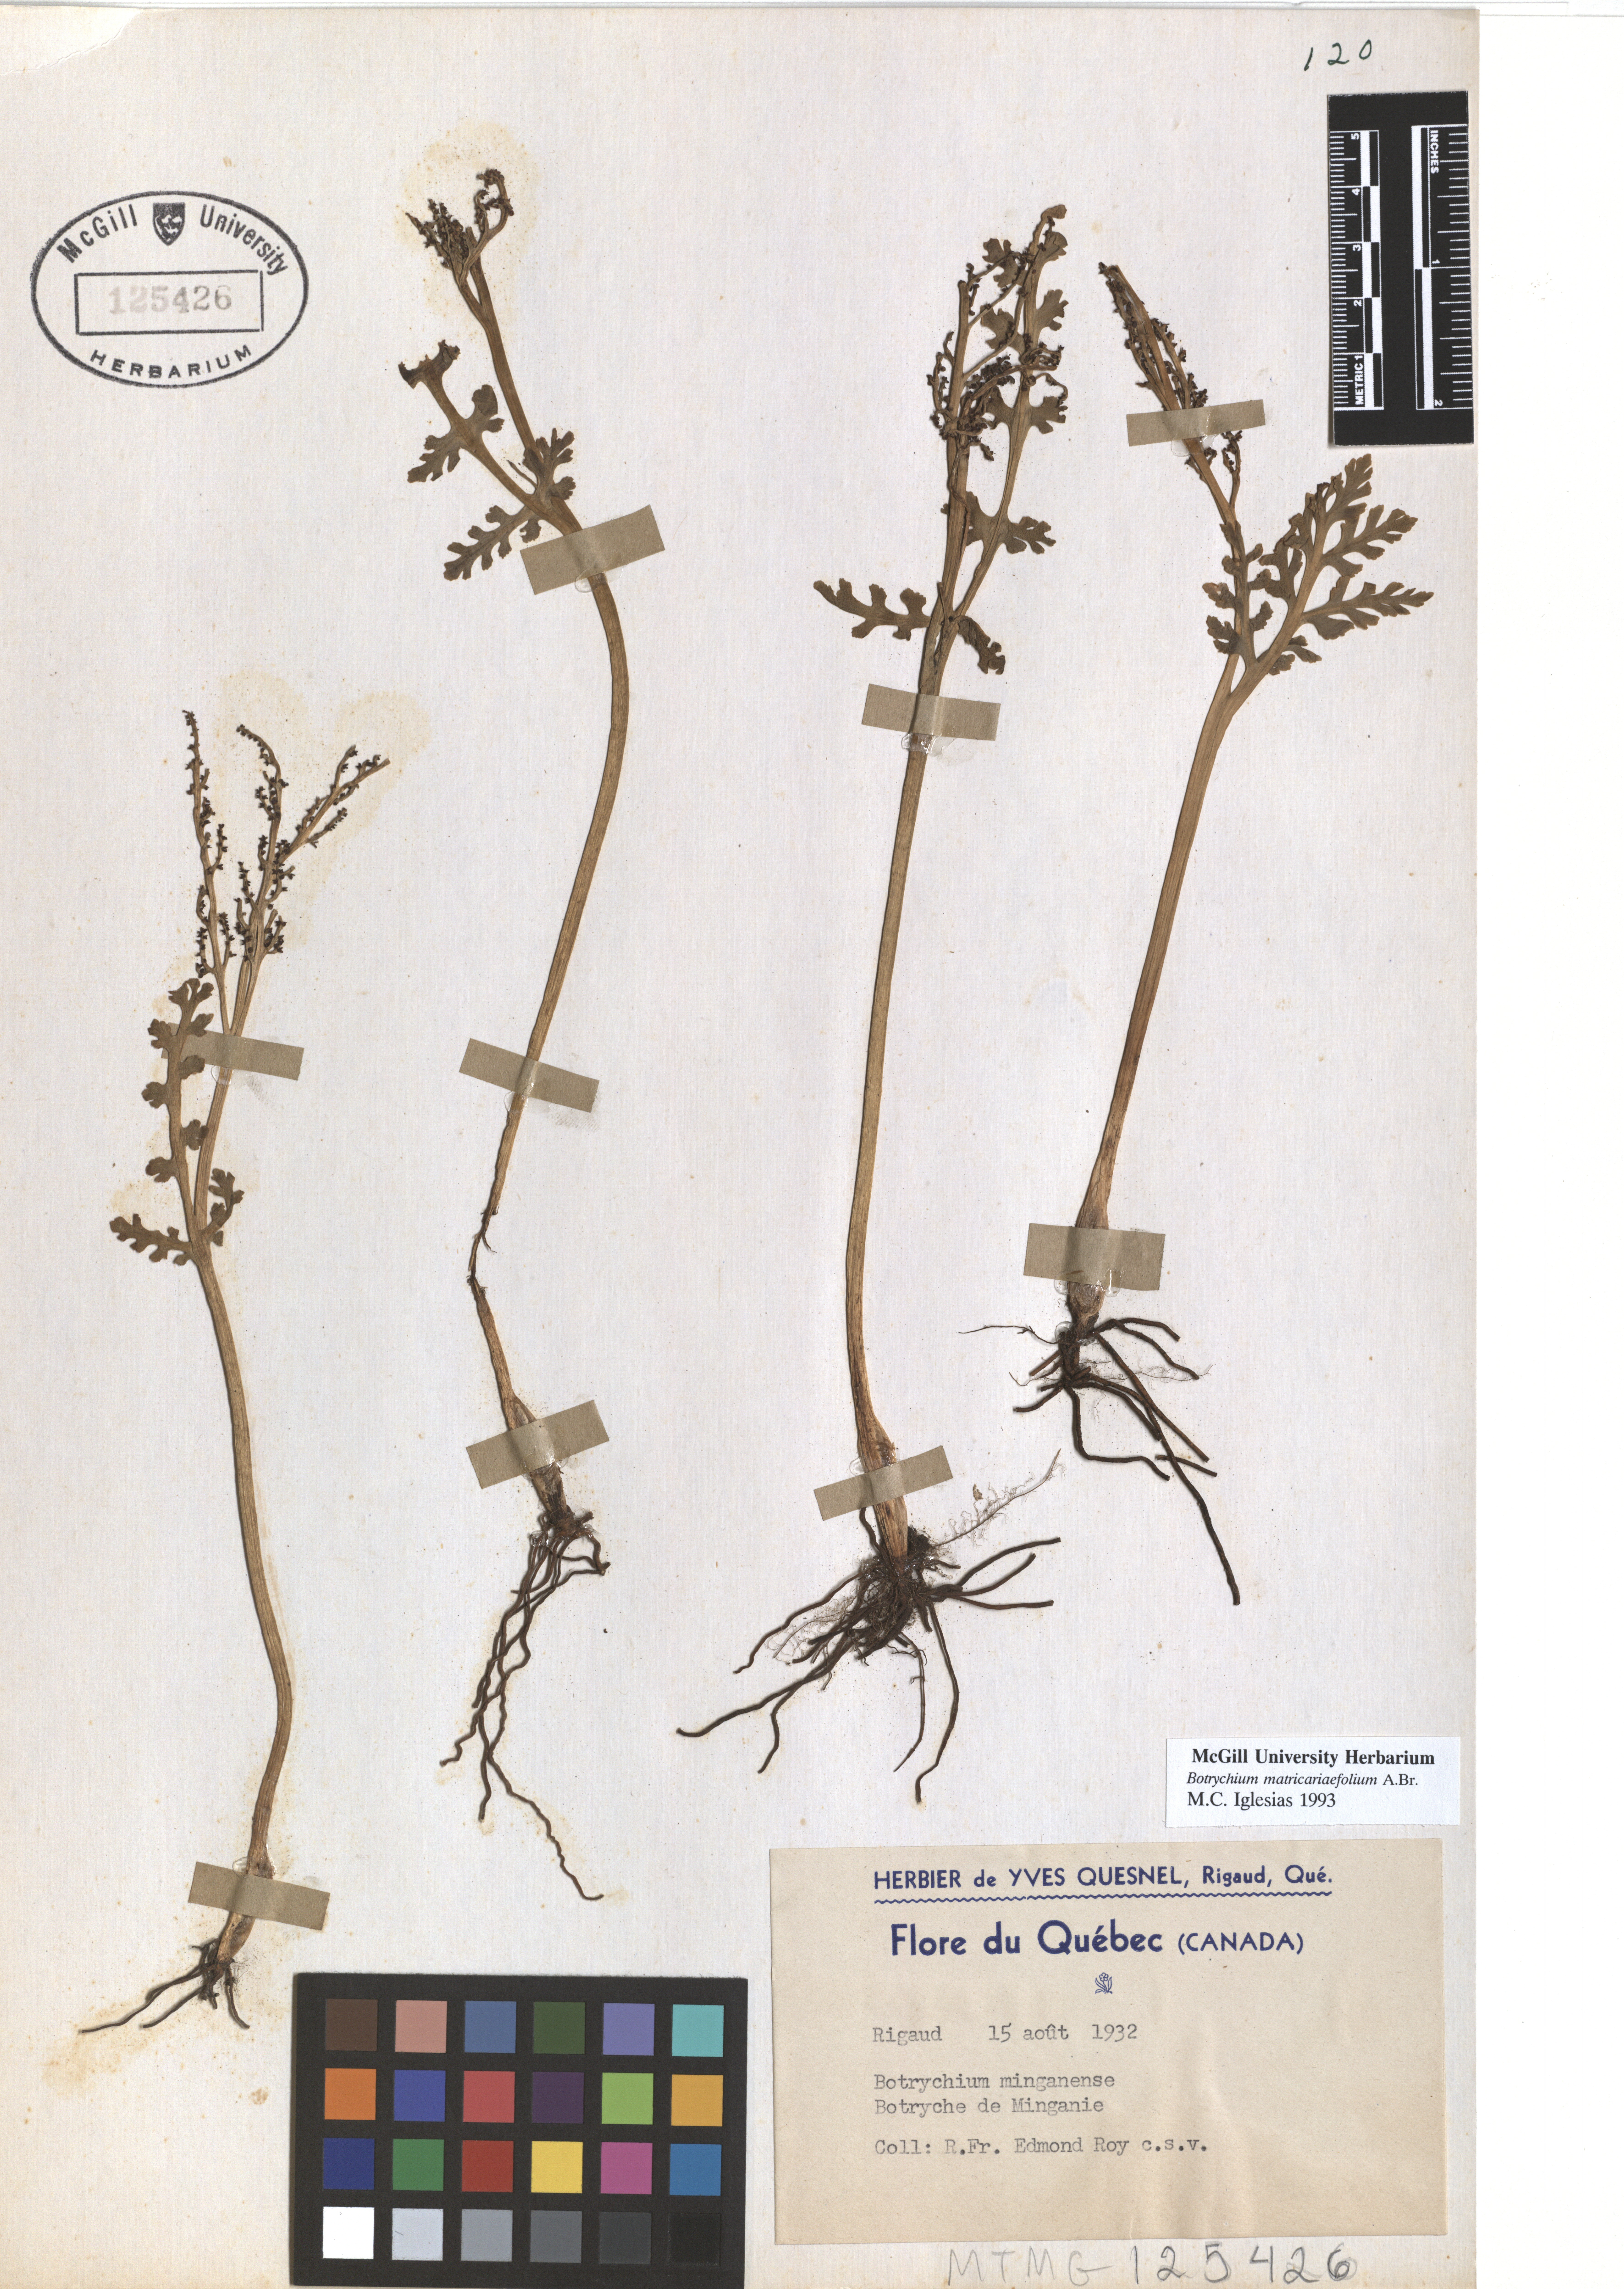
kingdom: Plantae
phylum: Tracheophyta
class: Polypodiopsida
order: Ophioglossales
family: Ophioglossaceae
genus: Botrychium
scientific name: Botrychium matricariifolium
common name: Branched moonwort
